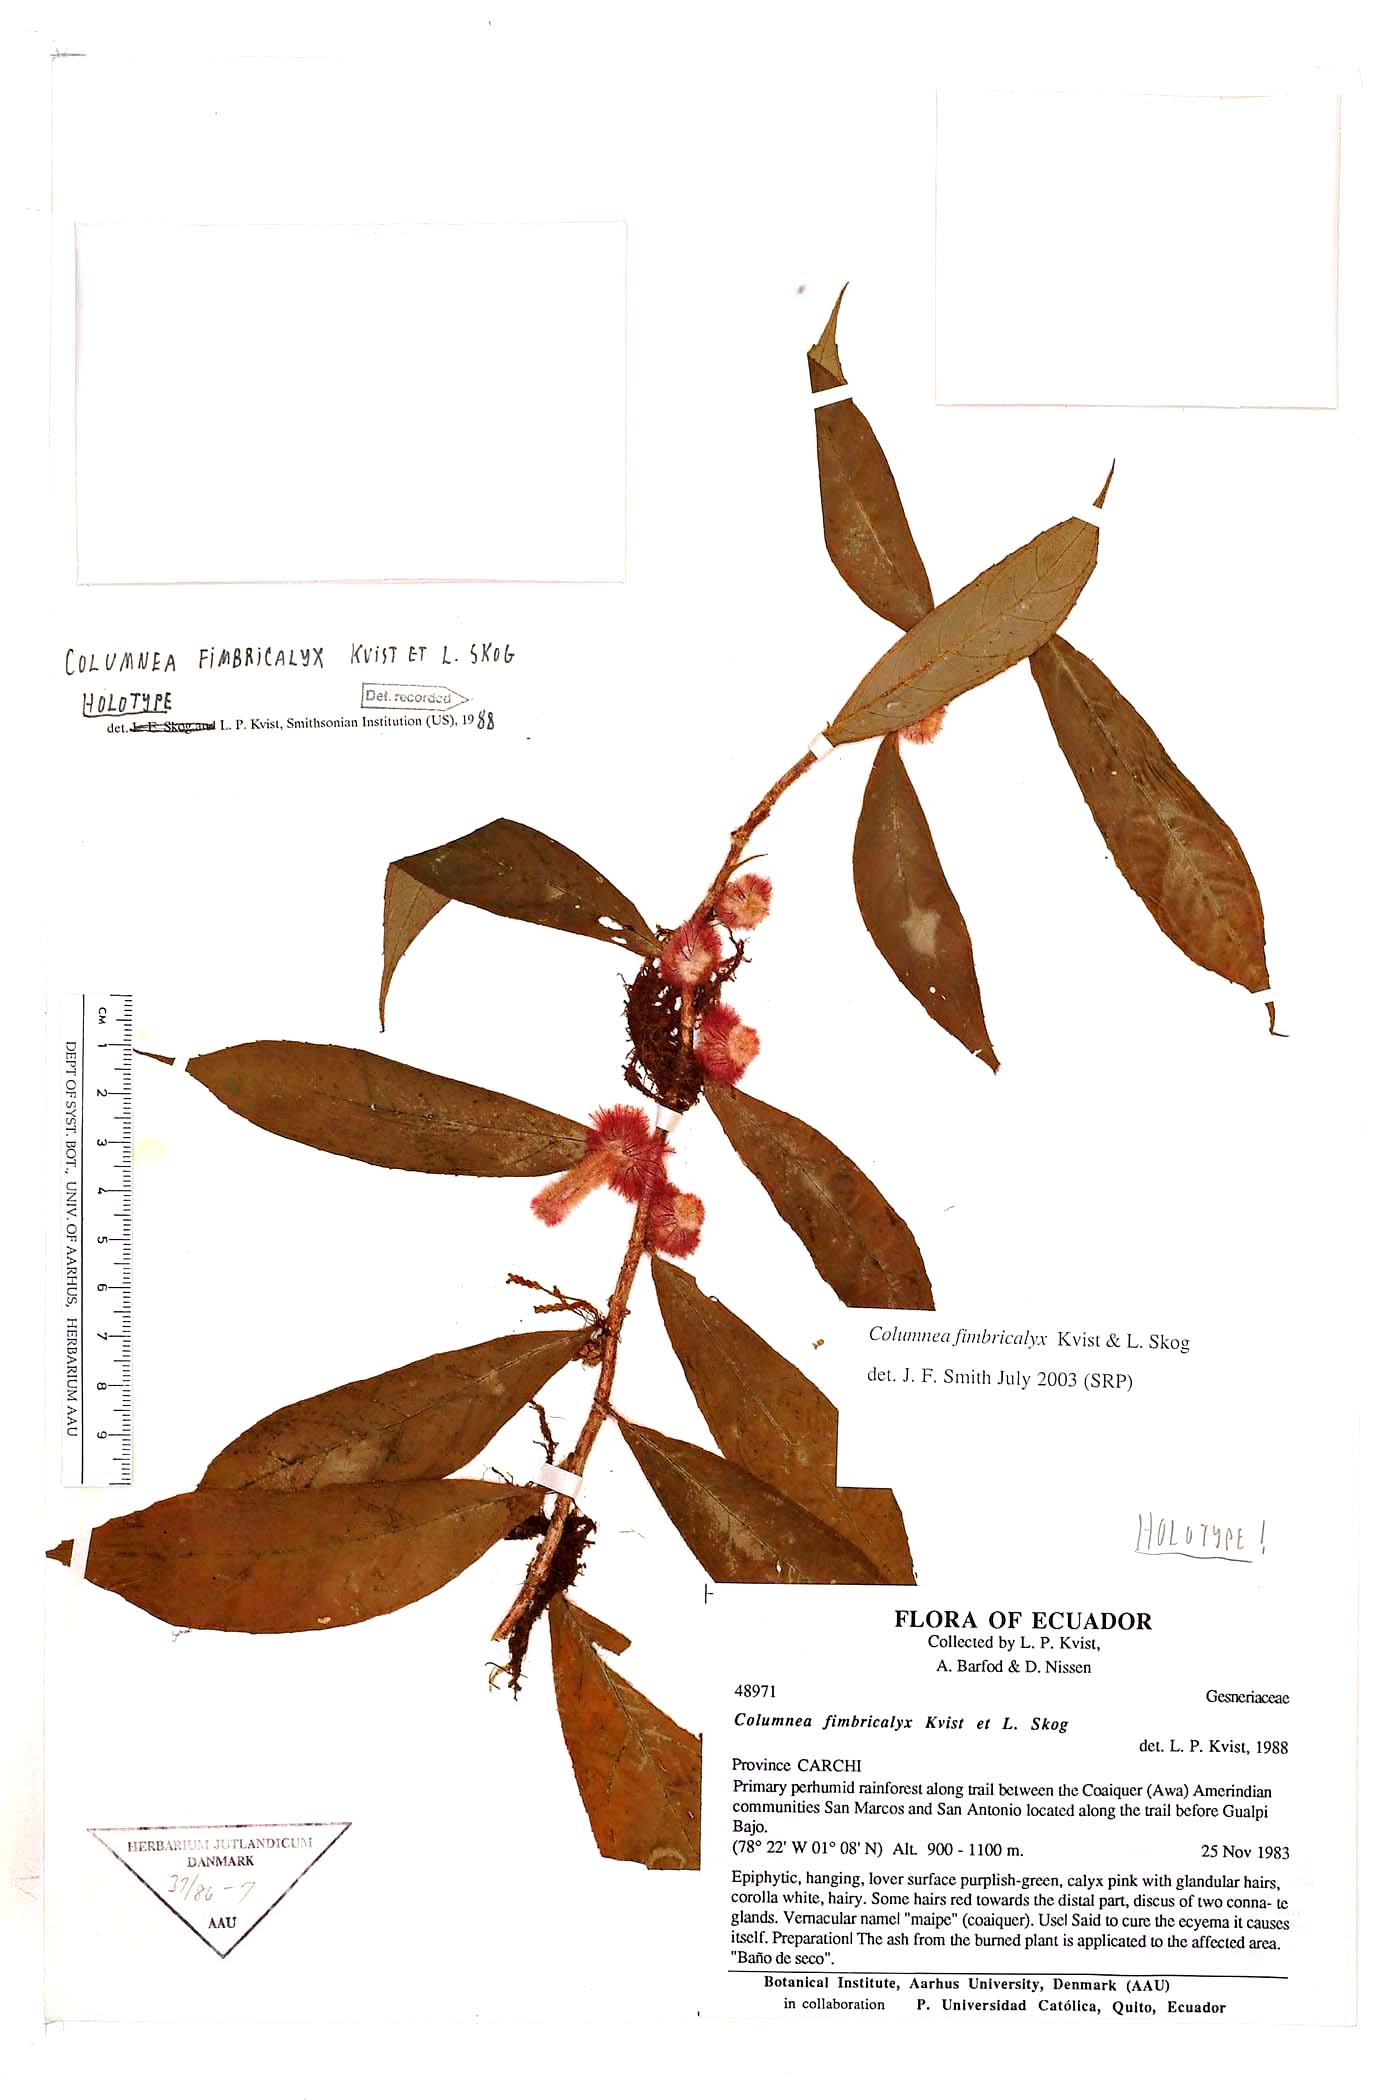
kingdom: Plantae
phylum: Tracheophyta
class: Magnoliopsida
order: Lamiales
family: Gesneriaceae
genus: Columnea
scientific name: Columnea fimbricalyx
